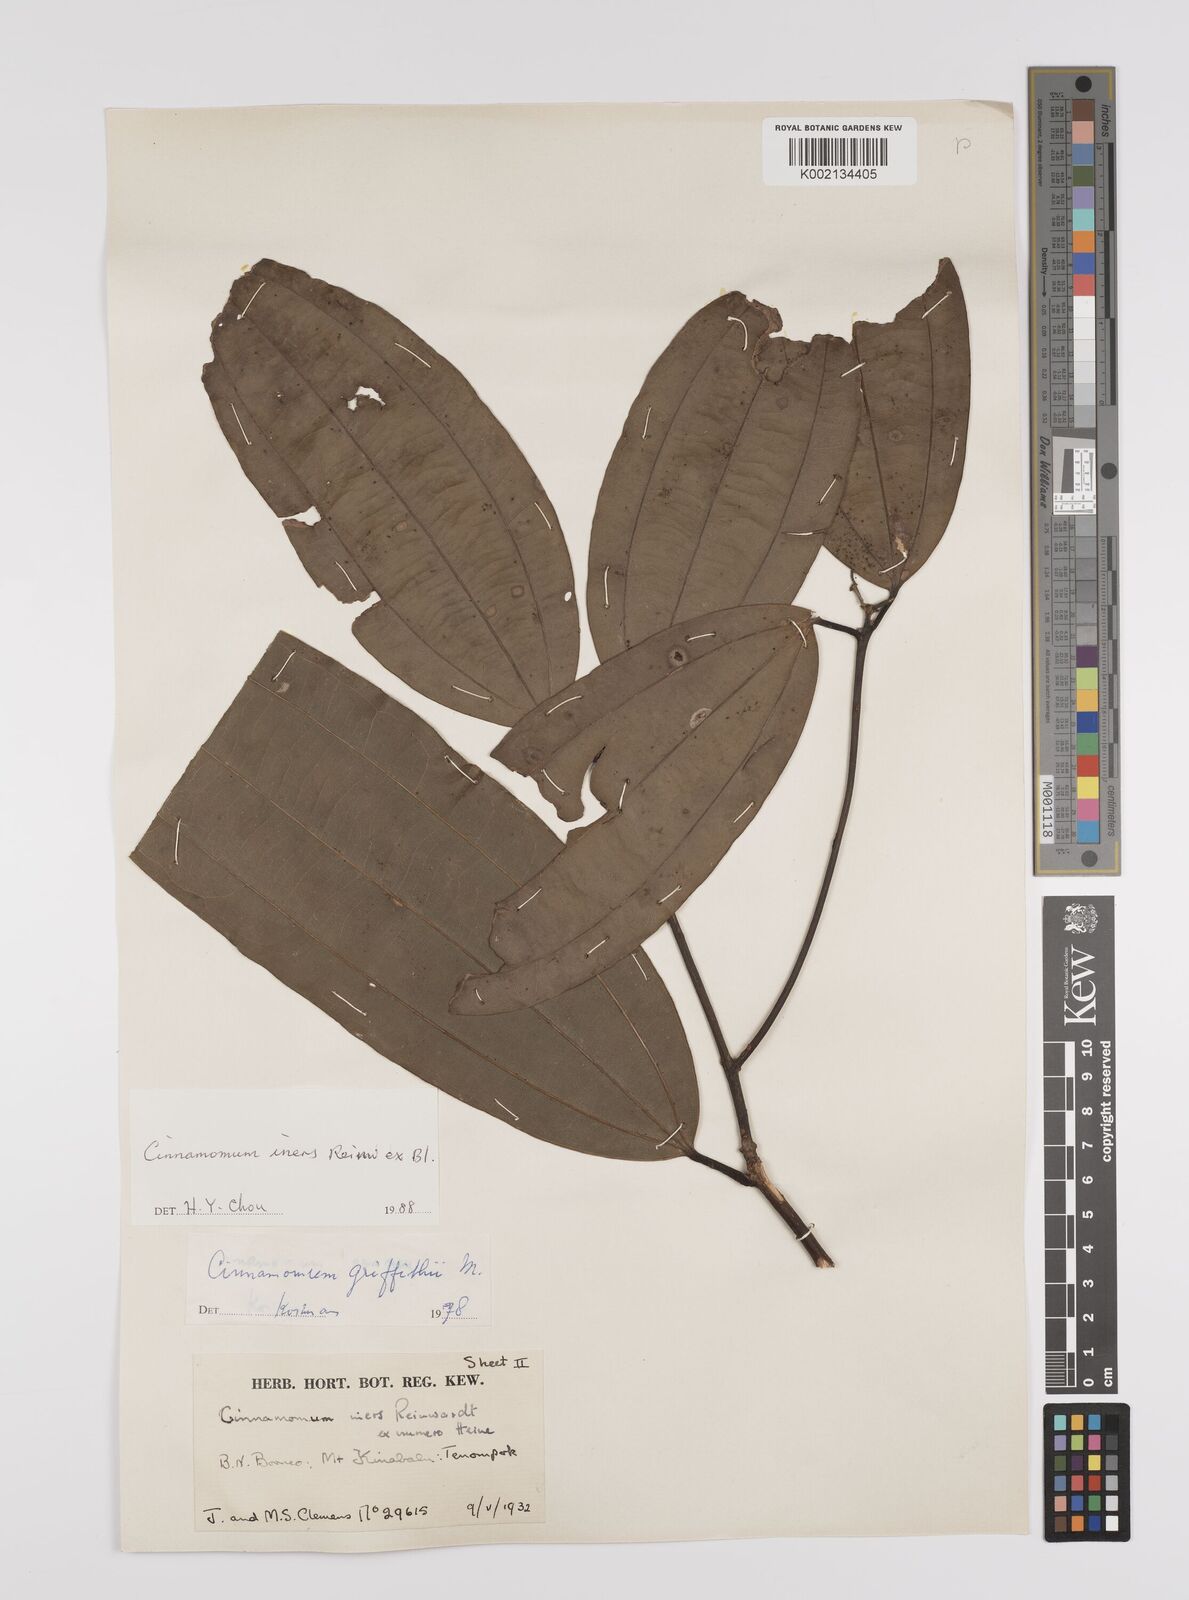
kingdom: Plantae
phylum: Tracheophyta
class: Magnoliopsida
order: Laurales
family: Lauraceae
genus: Cinnamomum
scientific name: Cinnamomum iners
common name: Wild cinnamon
